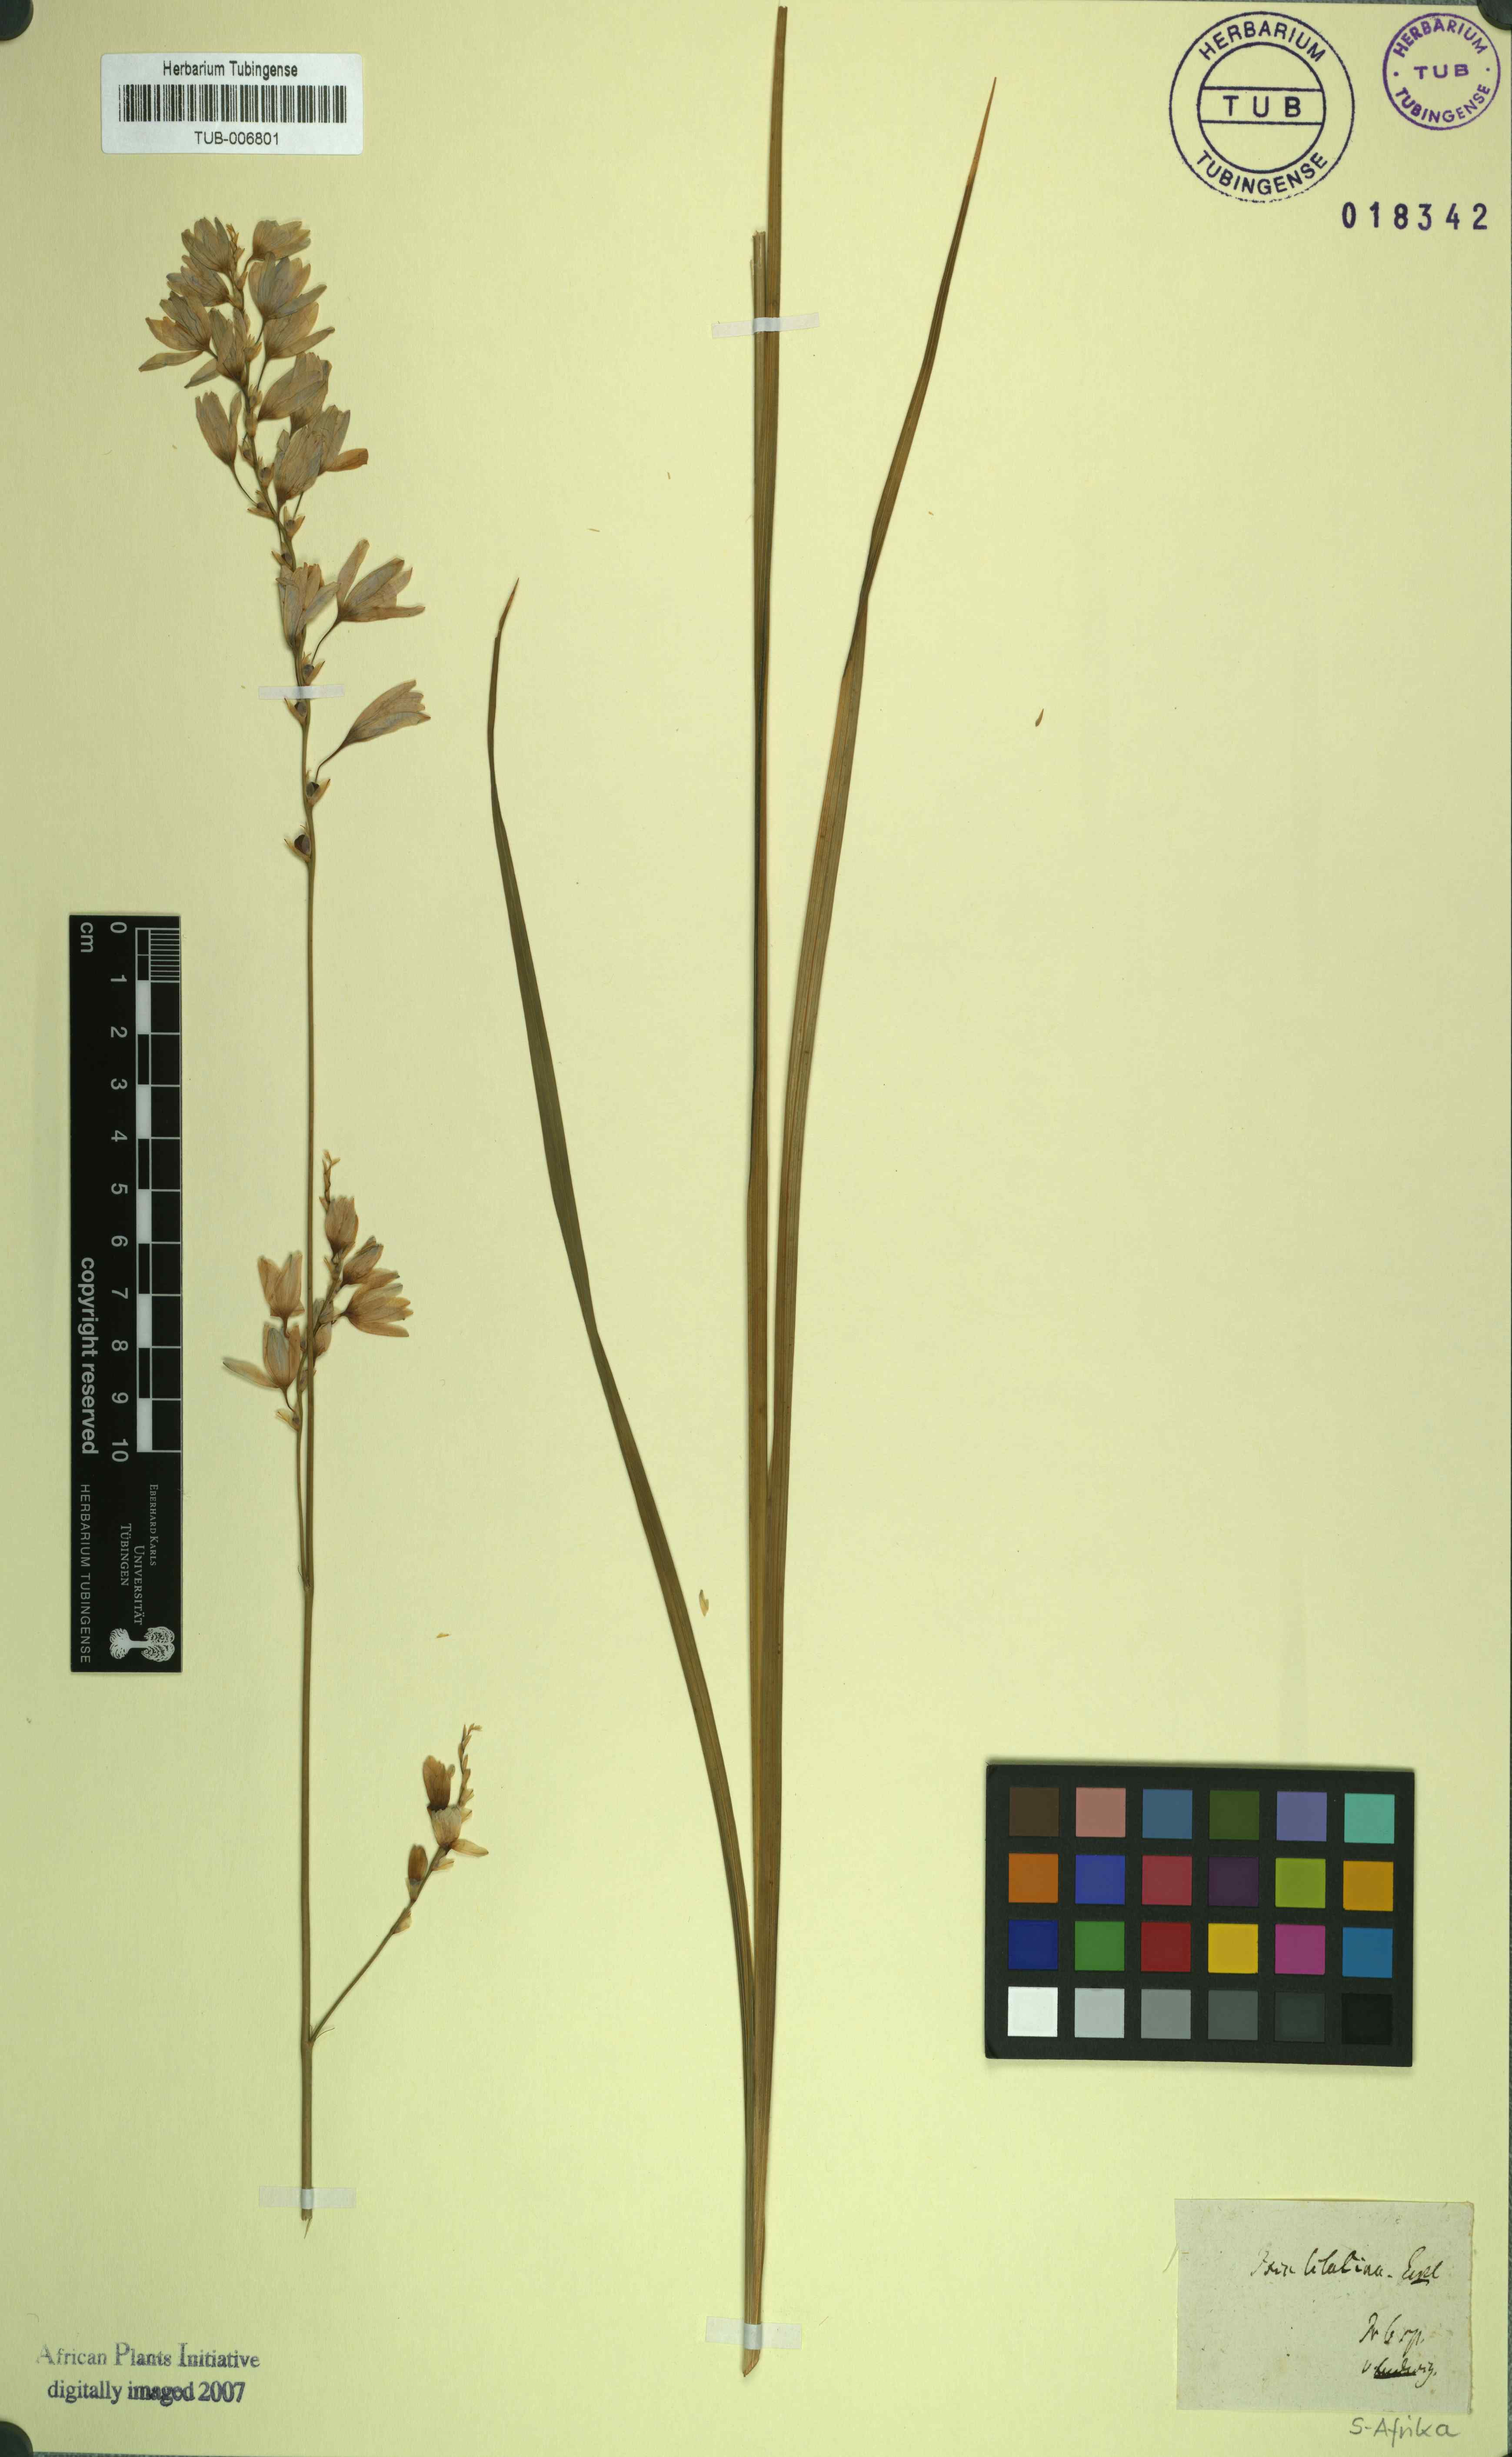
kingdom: Plantae
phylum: Tracheophyta
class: Liliopsida
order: Asparagales
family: Iridaceae
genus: Ixia
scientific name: Ixia lilacina
